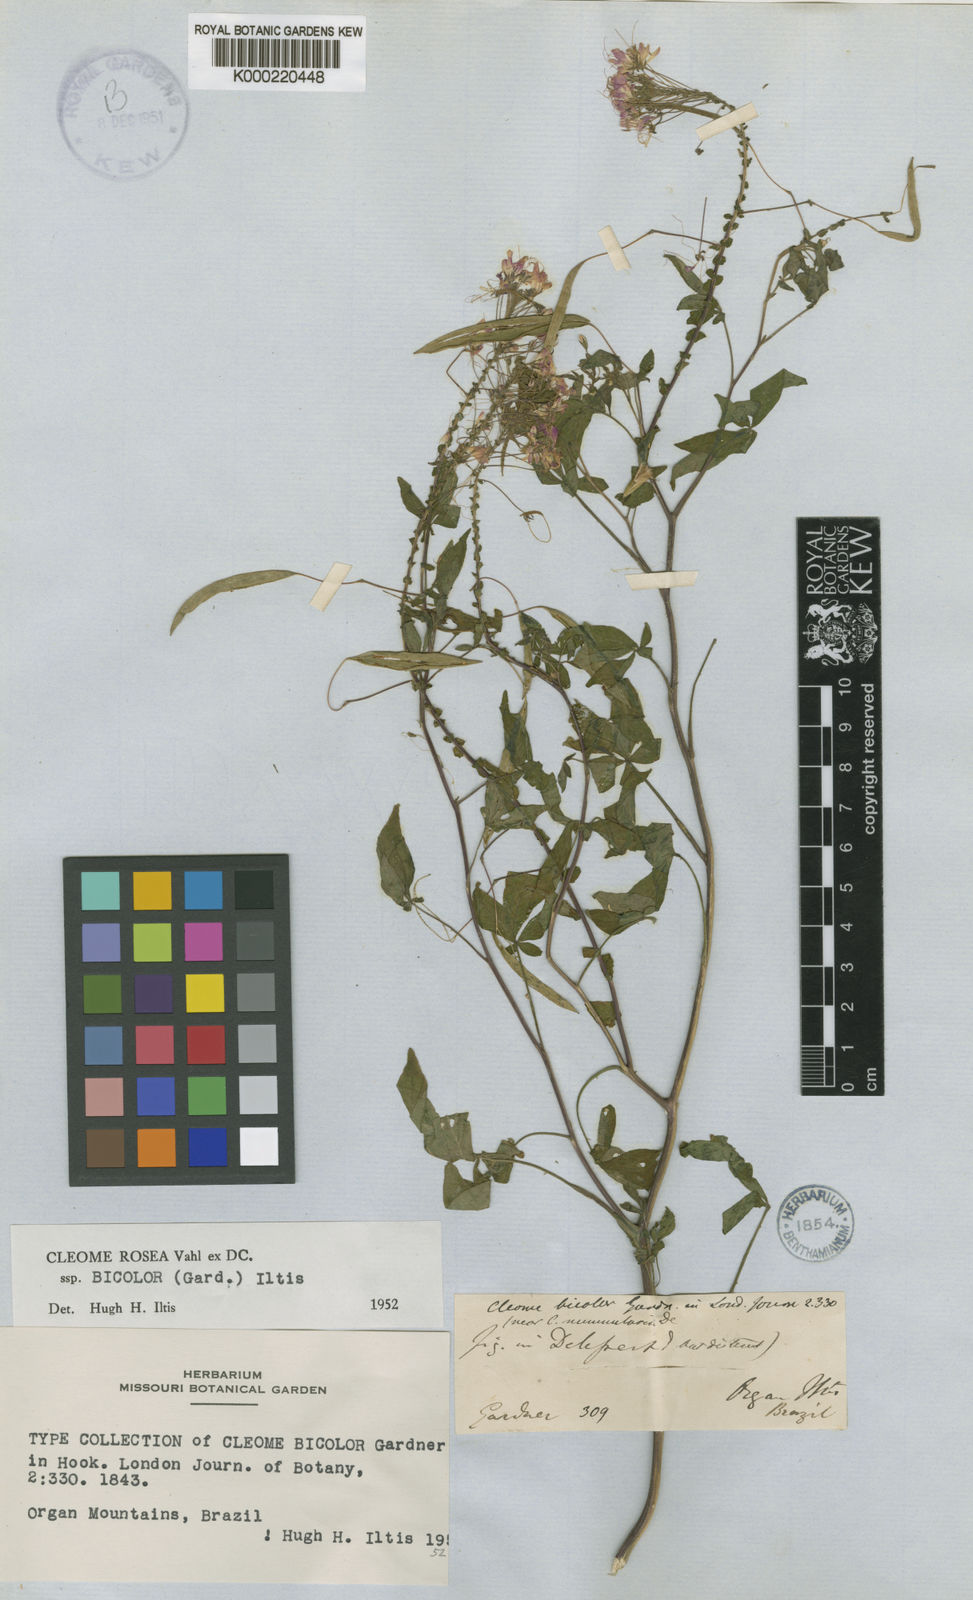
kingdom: Plantae
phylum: Tracheophyta
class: Magnoliopsida
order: Brassicales
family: Cleomaceae
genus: Tarenaya
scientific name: Tarenaya rosea
